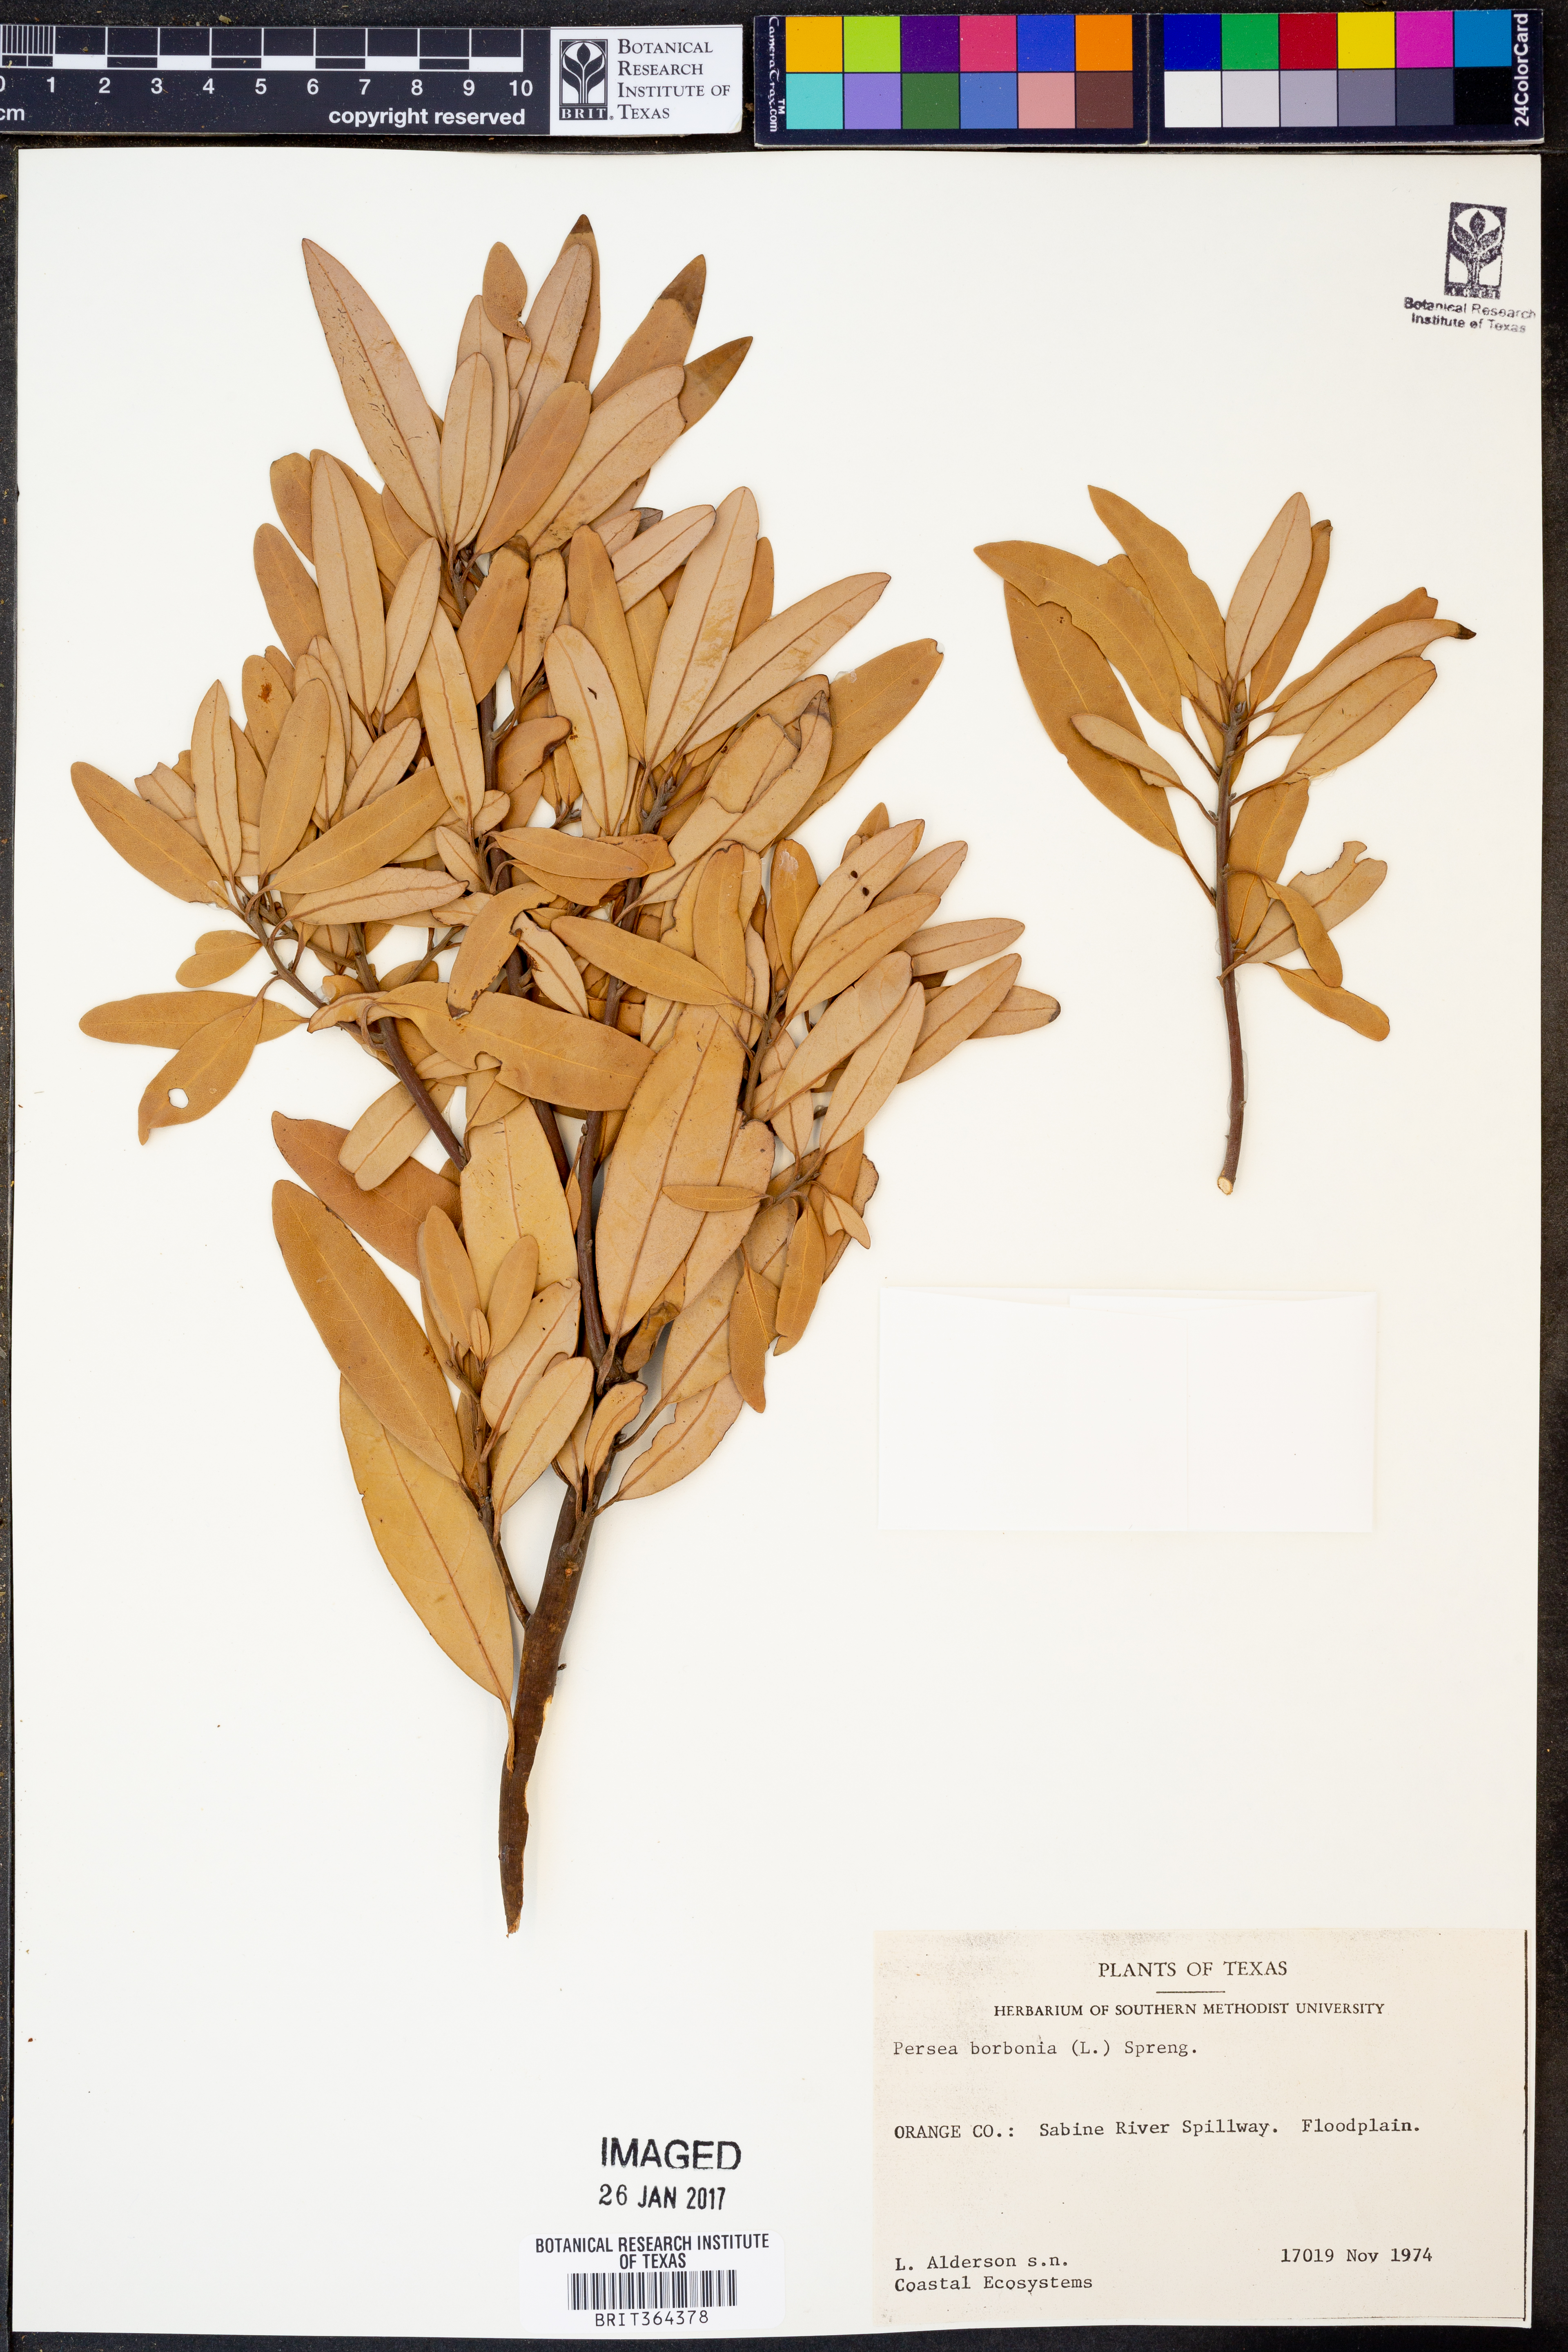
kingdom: Plantae
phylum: Tracheophyta
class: Magnoliopsida
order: Laurales
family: Lauraceae
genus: Persea
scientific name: Persea borbonia
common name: Redbay
